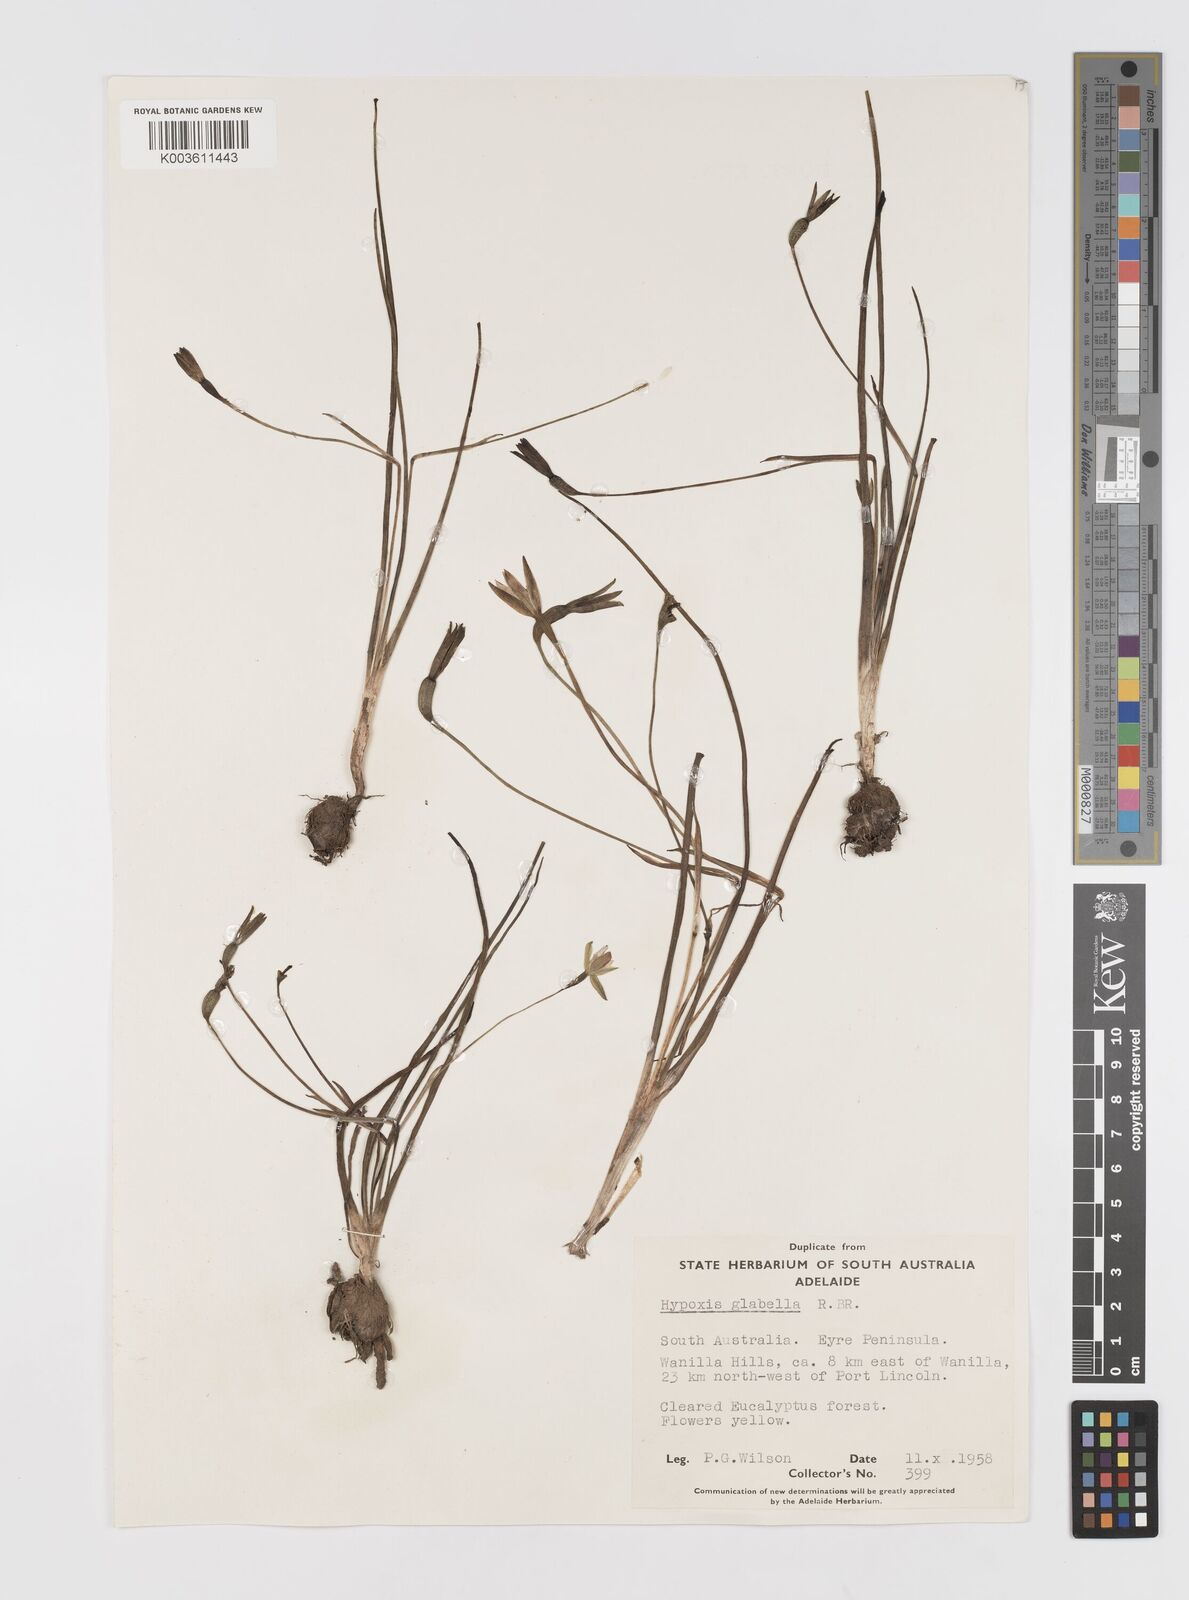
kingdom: Plantae
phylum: Tracheophyta
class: Liliopsida
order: Asparagales
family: Hypoxidaceae
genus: Pauridia
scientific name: Pauridia glabella
